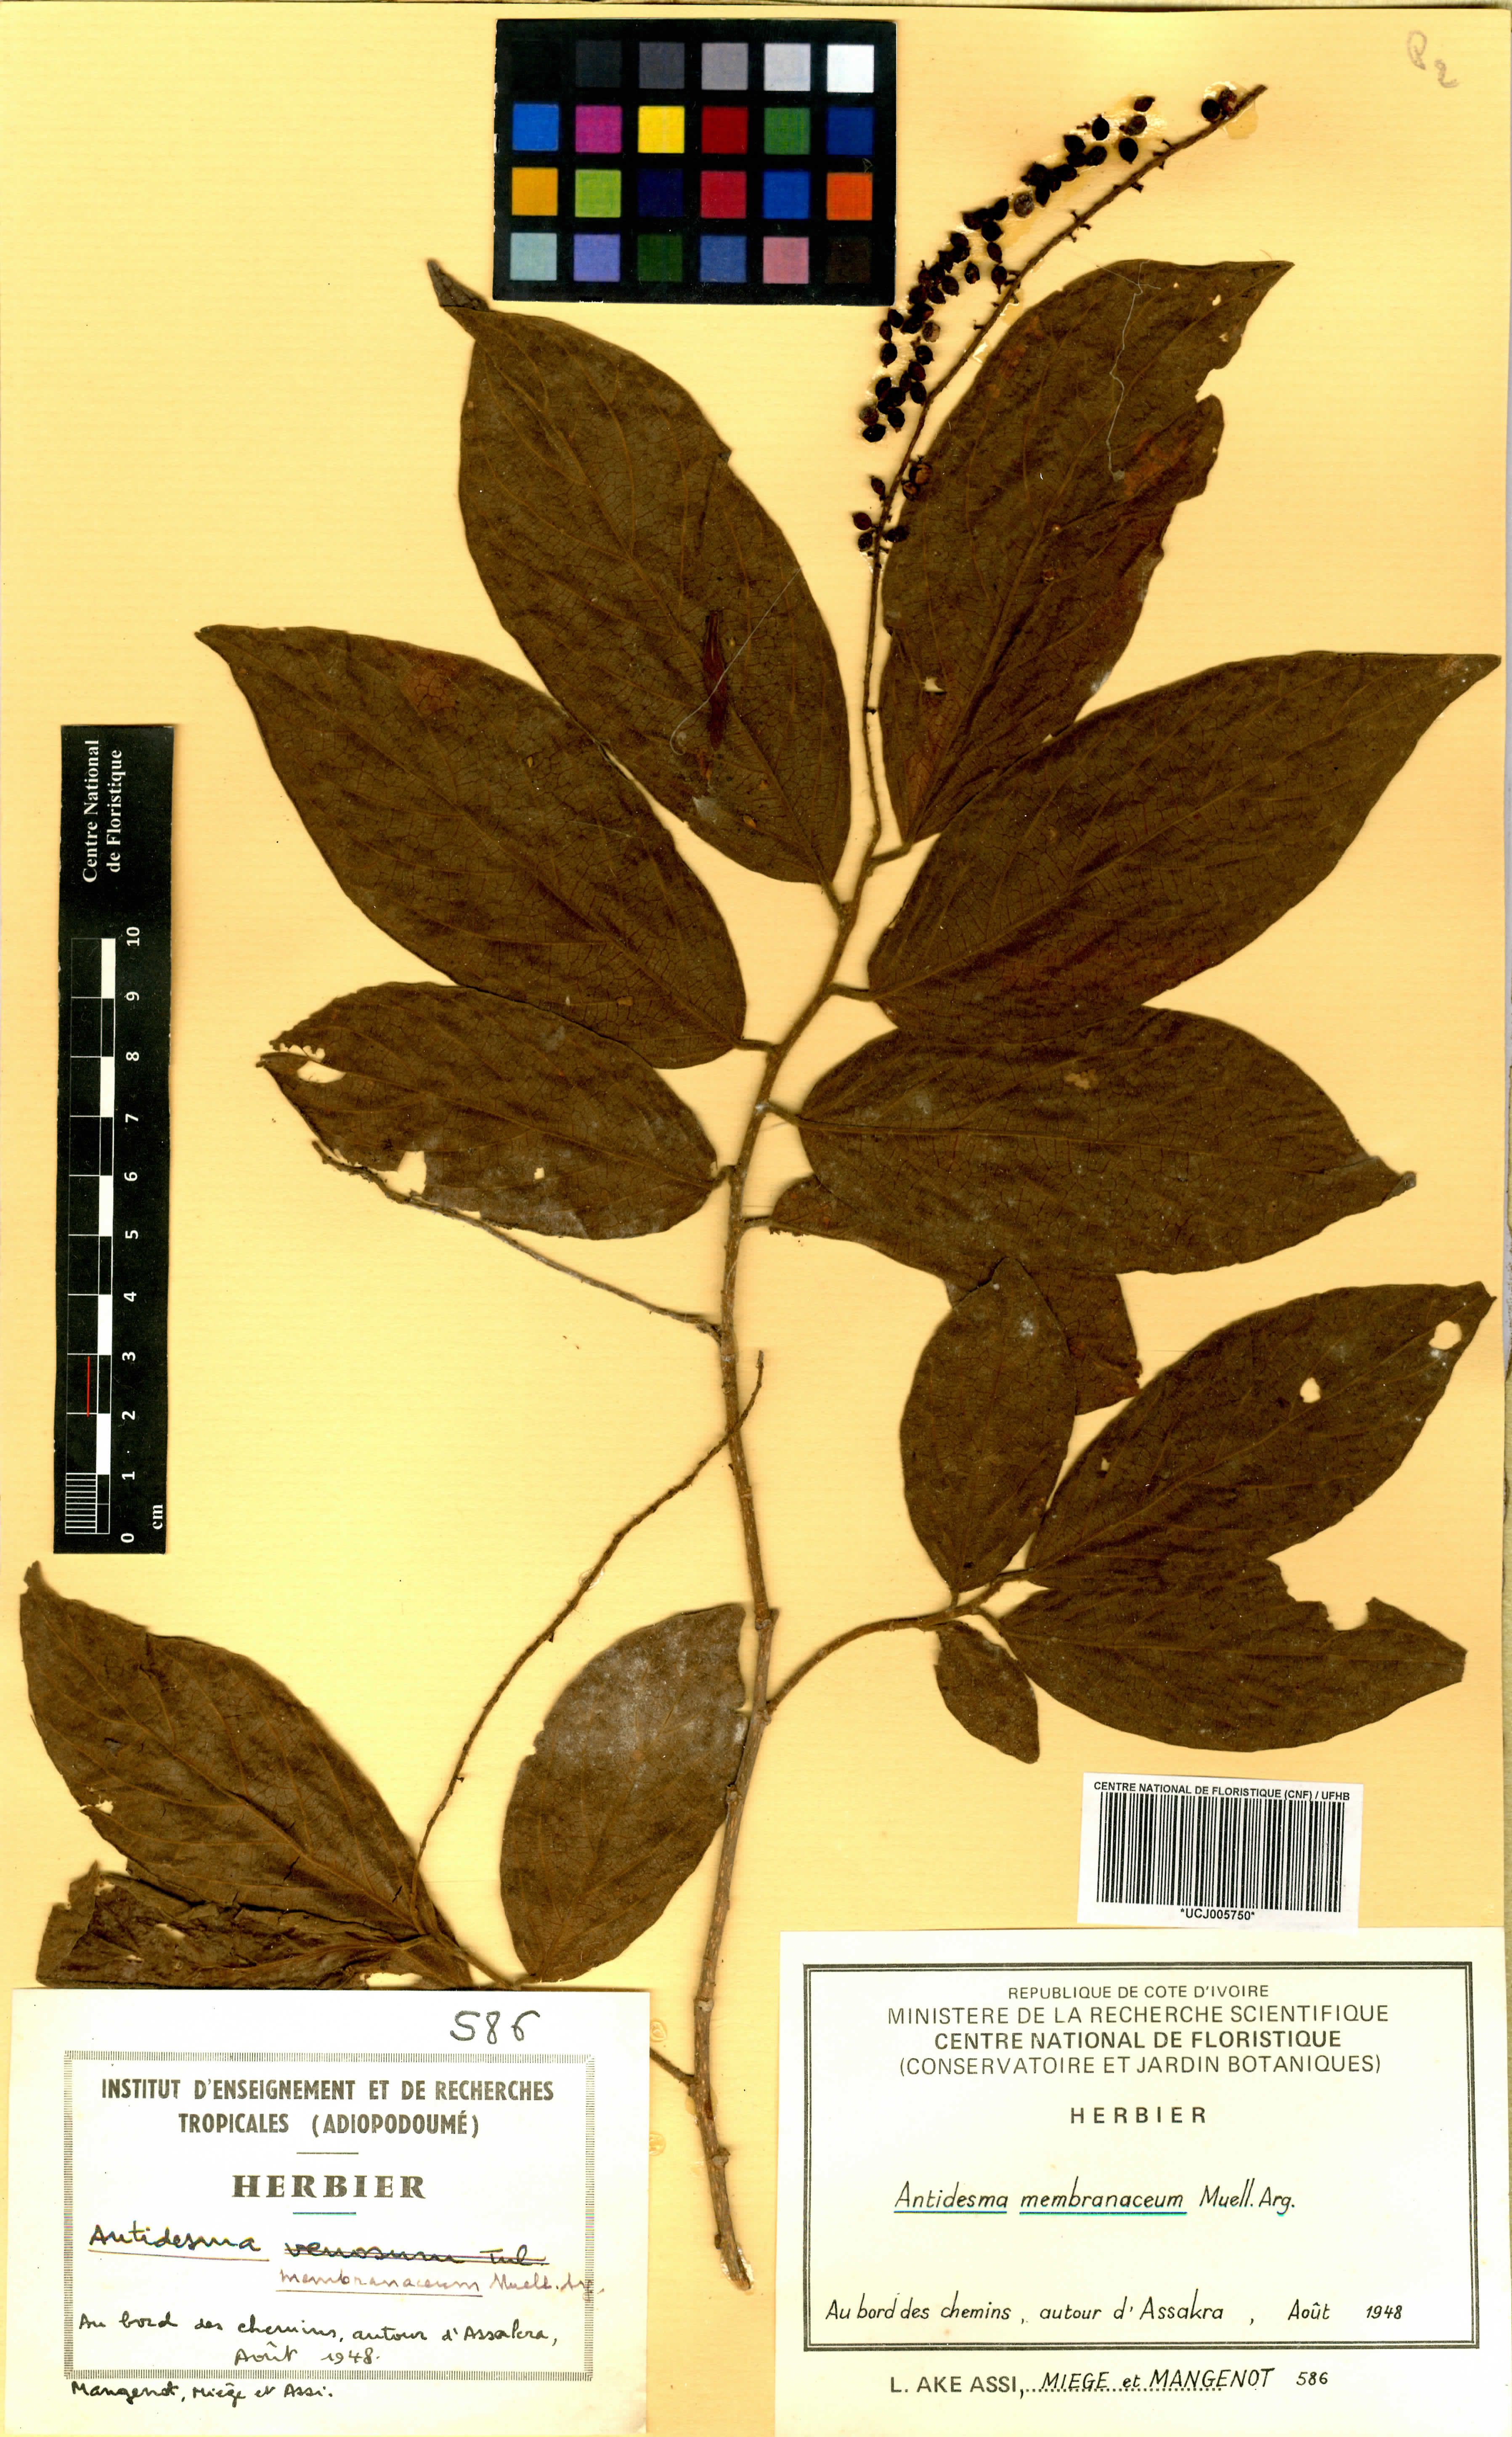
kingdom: Plantae
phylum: Tracheophyta
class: Magnoliopsida
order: Malpighiales
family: Phyllanthaceae
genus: Antidesma
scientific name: Antidesma membranaceum
